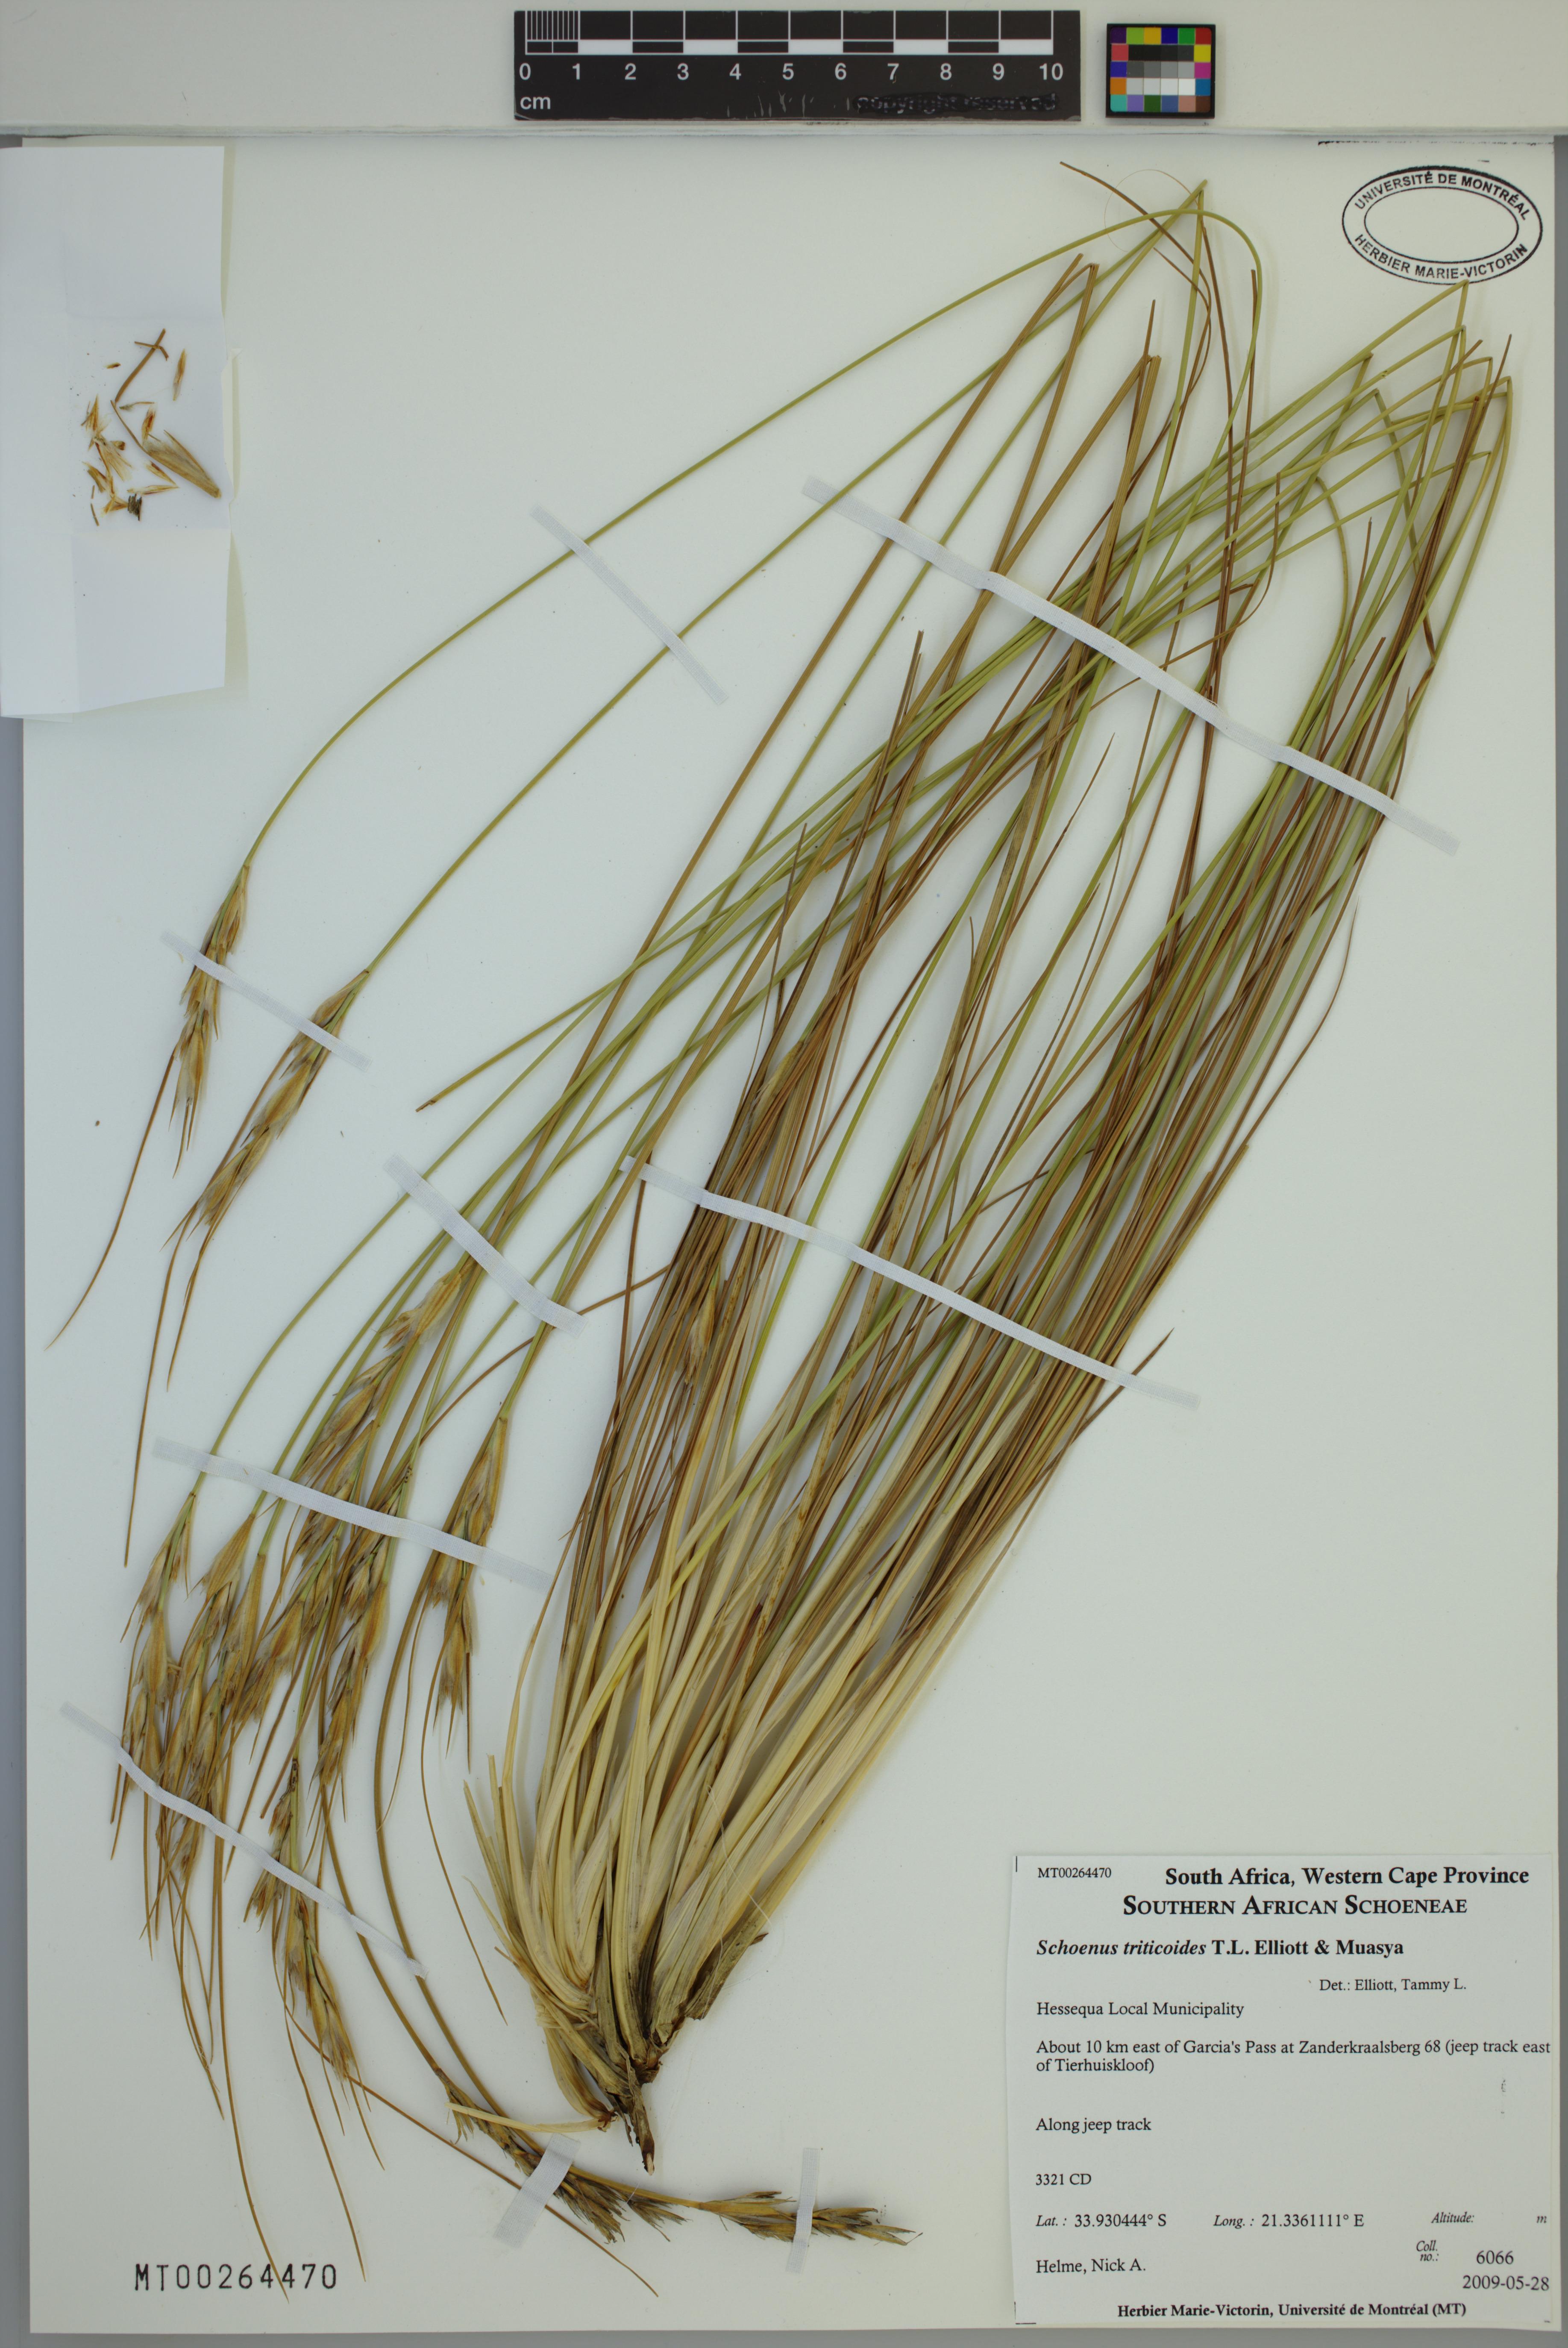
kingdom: Plantae
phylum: Tracheophyta
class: Liliopsida
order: Poales
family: Cyperaceae
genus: Schoenus
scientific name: Schoenus triticoides
